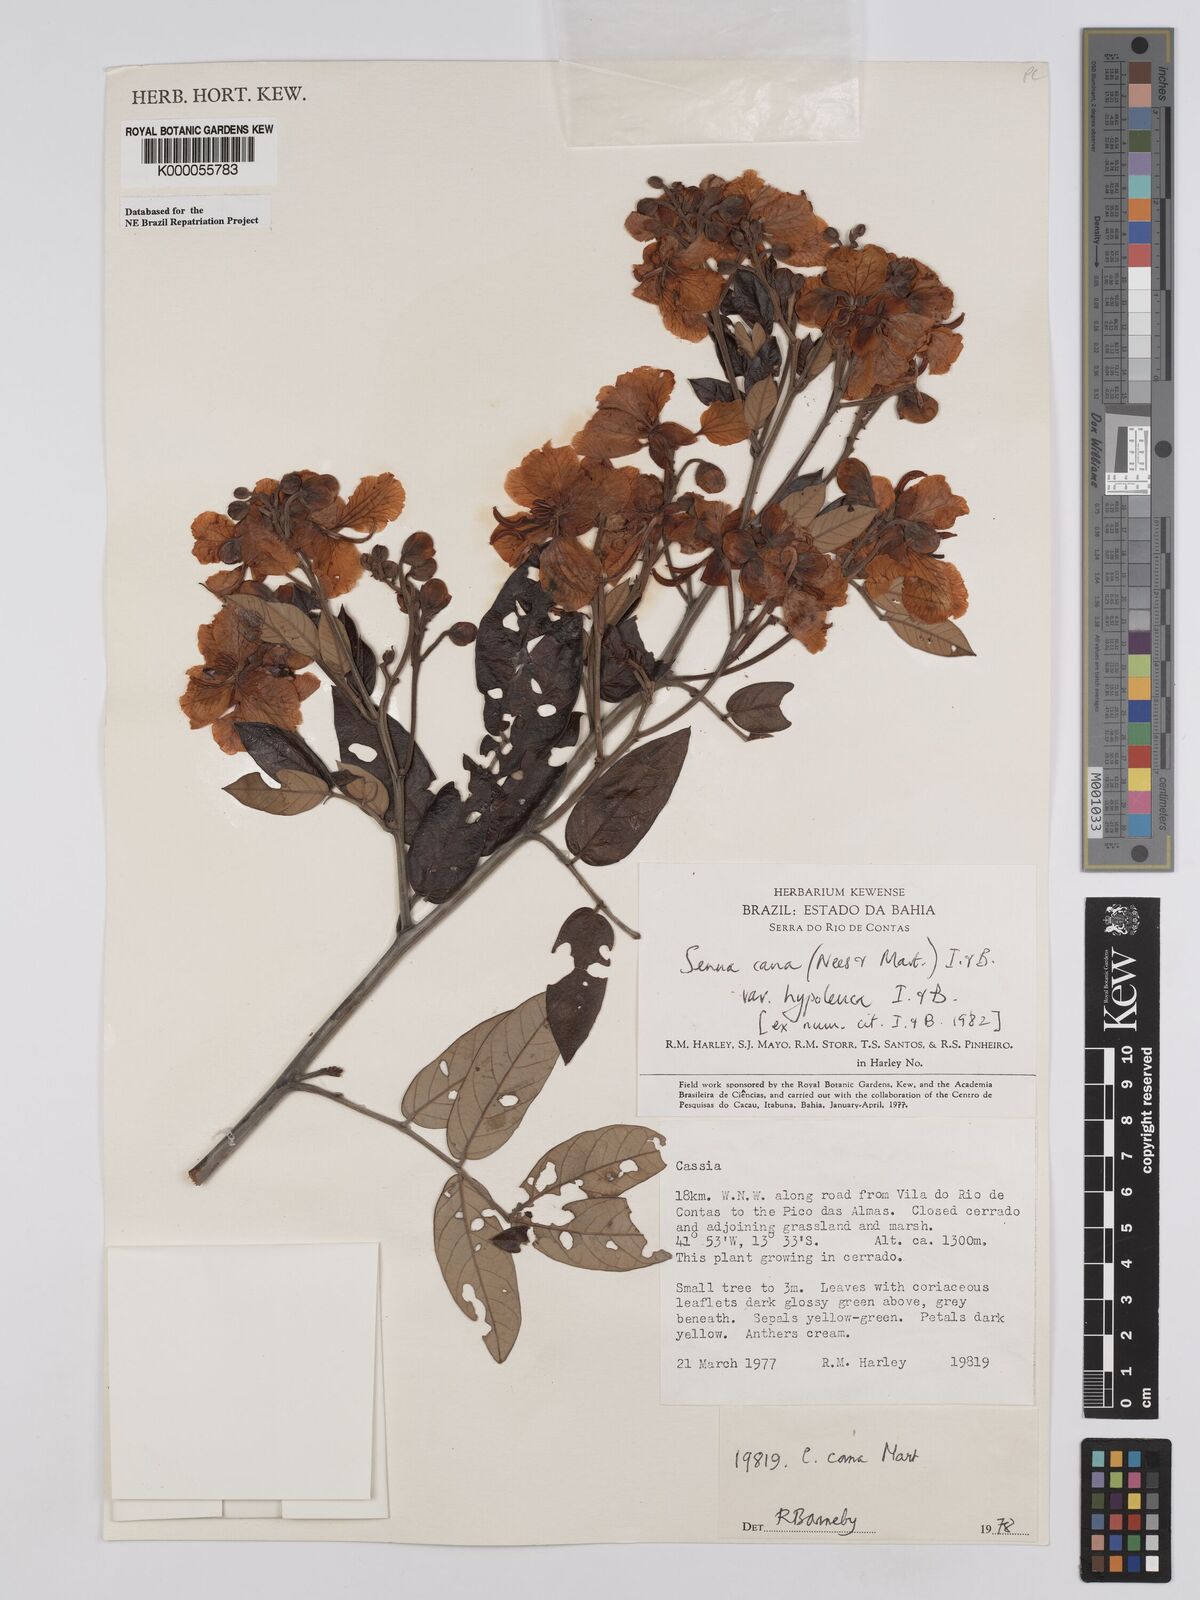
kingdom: Plantae
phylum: Tracheophyta
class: Magnoliopsida
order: Fabales
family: Fabaceae
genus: Senna
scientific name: Senna cana
